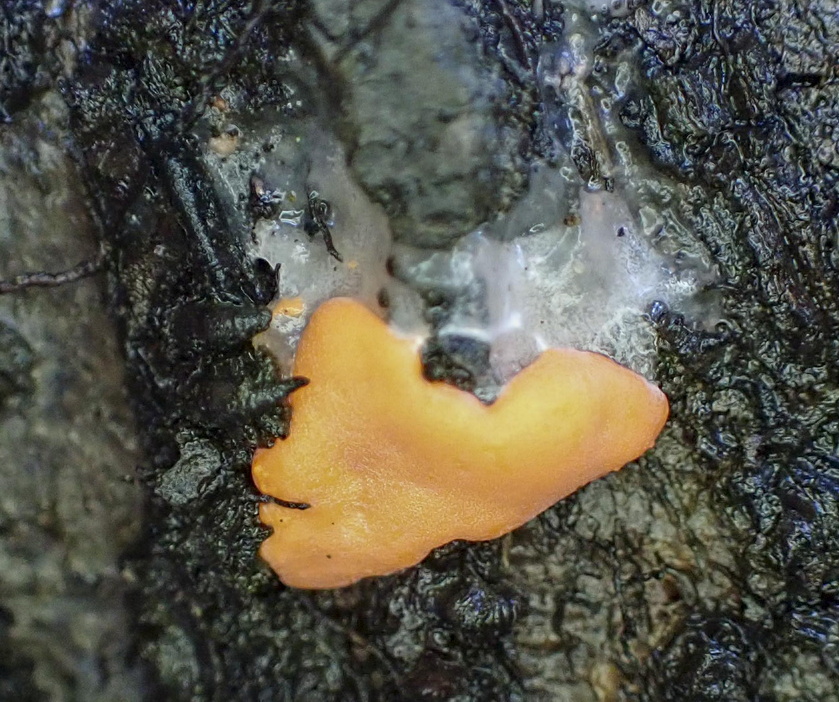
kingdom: Protozoa
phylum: Mycetozoa
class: Myxomycetes
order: Trichiales
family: Dictydiaethaliaceae
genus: Dictydiaethalium
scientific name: Dictydiaethalium plumbeum
